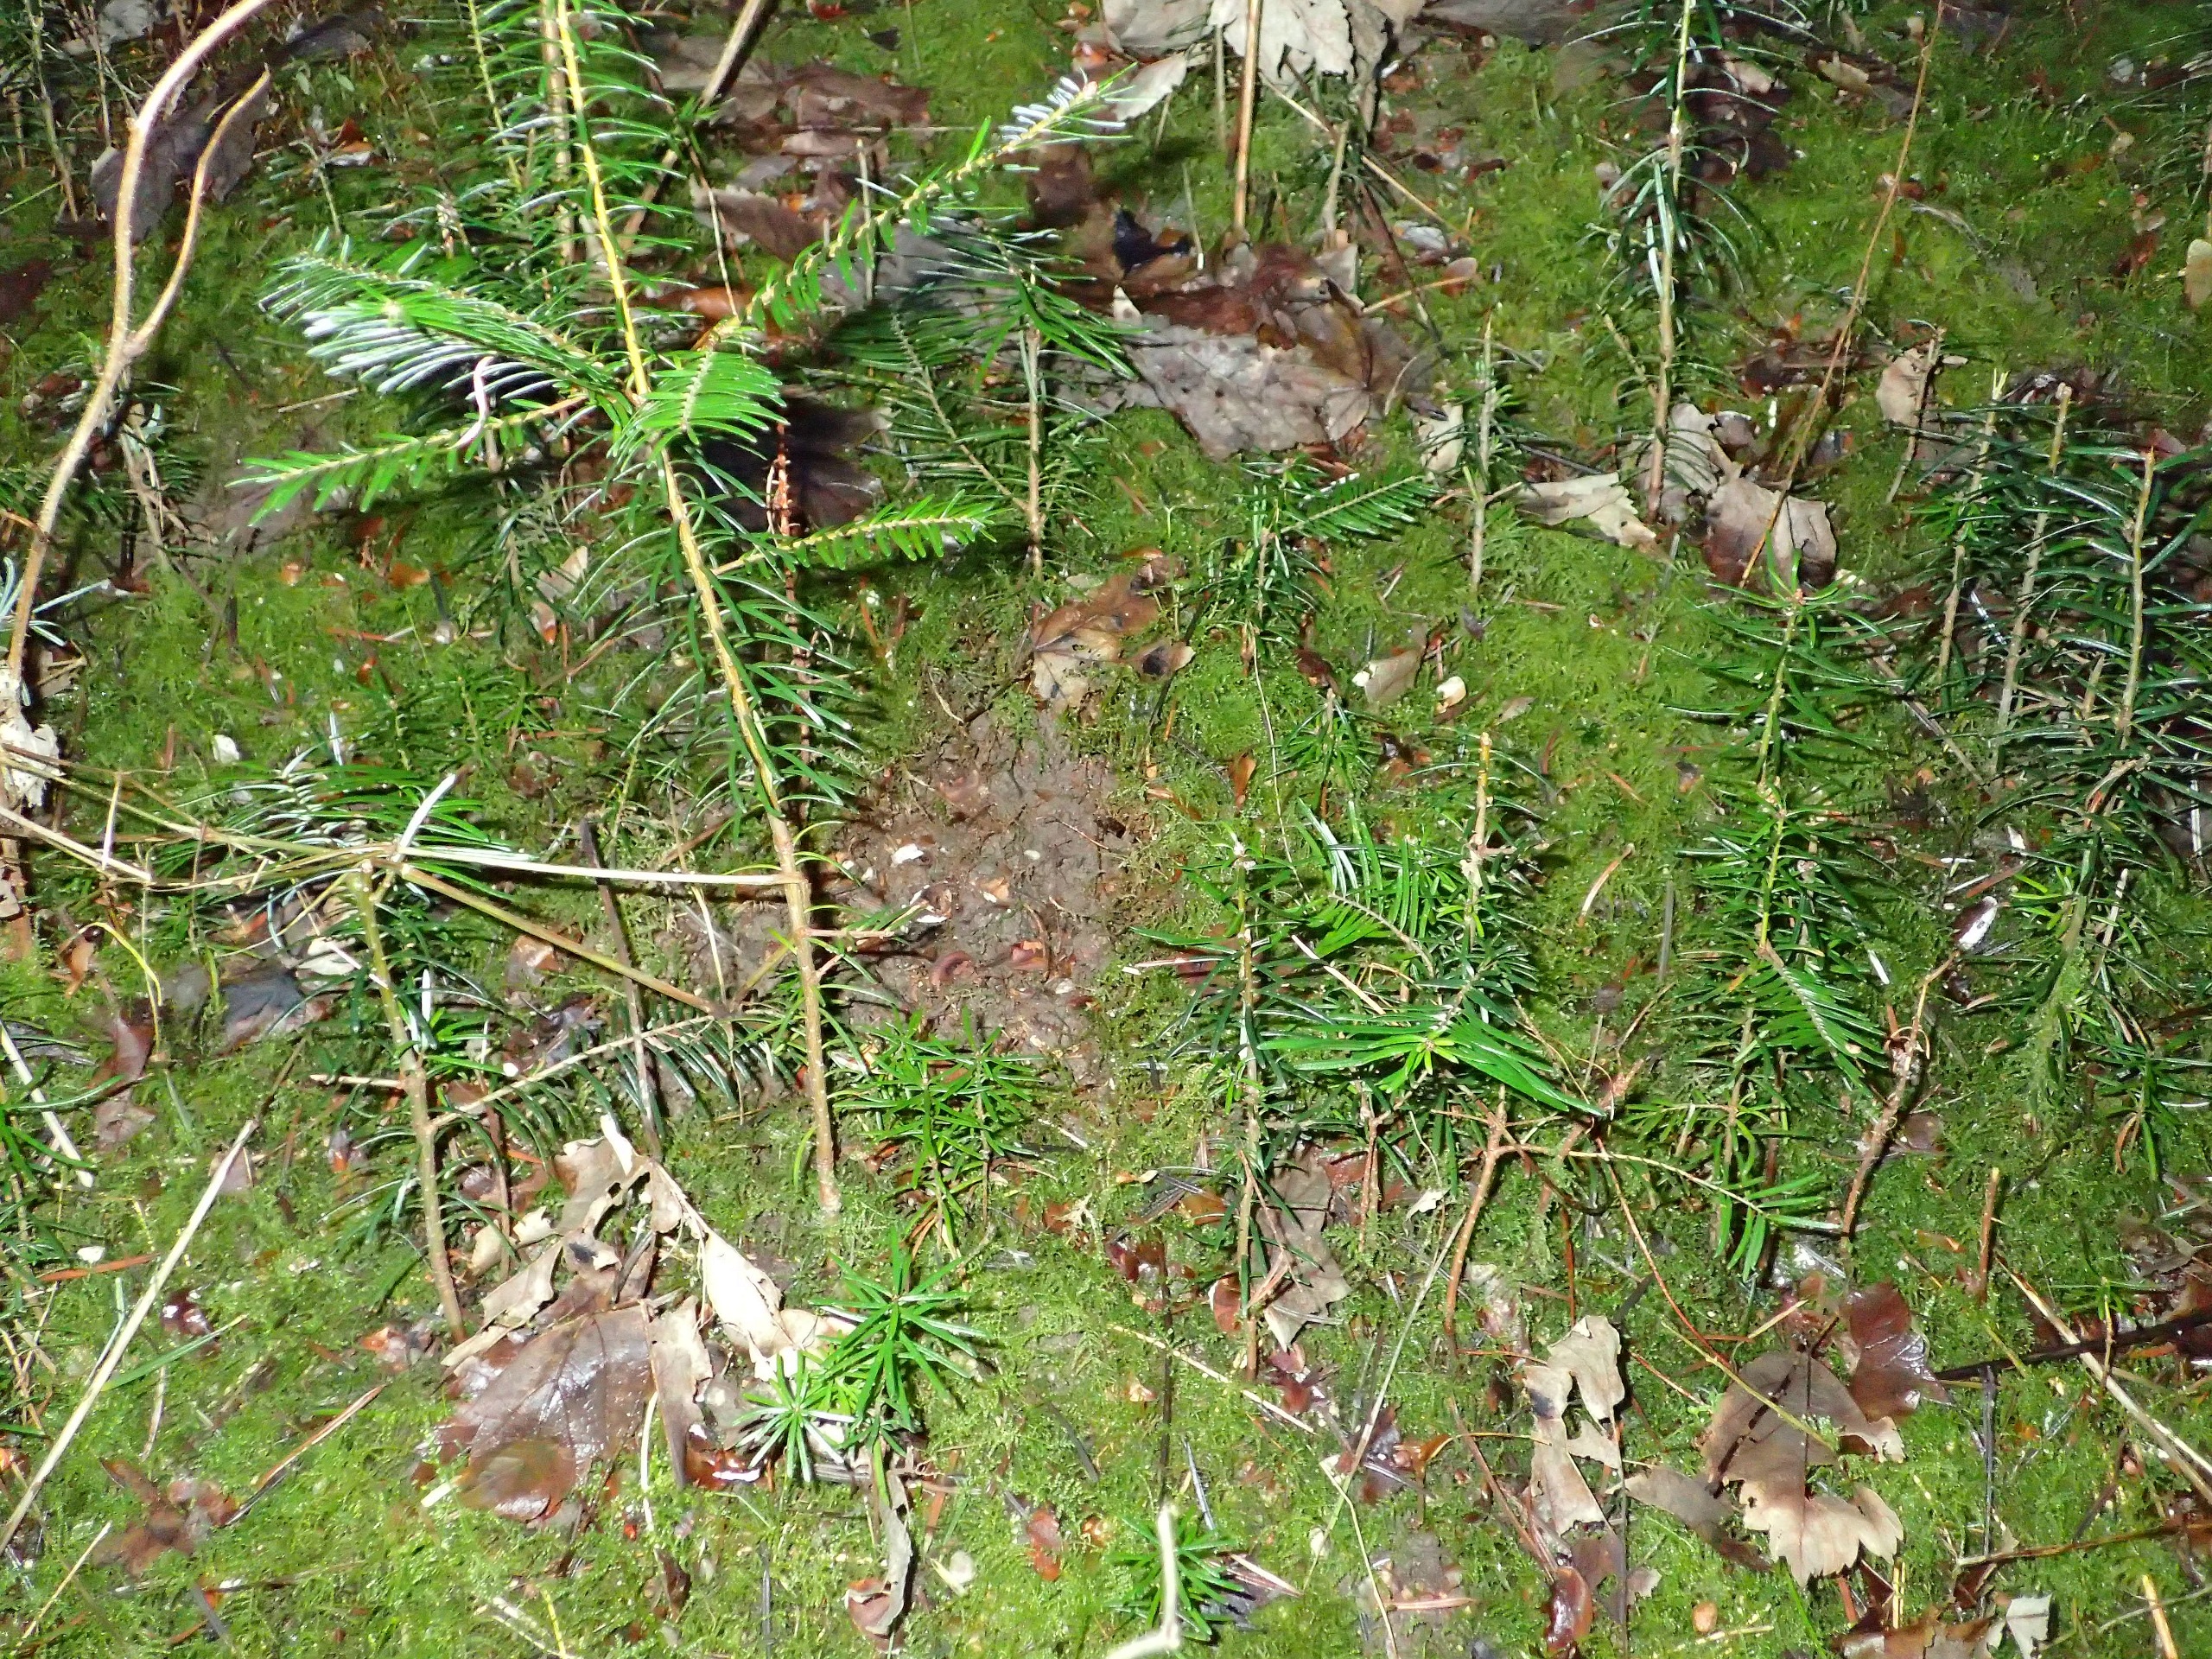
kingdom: Plantae
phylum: Tracheophyta
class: Pinopsida
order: Pinales
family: Pinaceae
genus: Abies
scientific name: Abies grandis
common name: Kæmpegran
